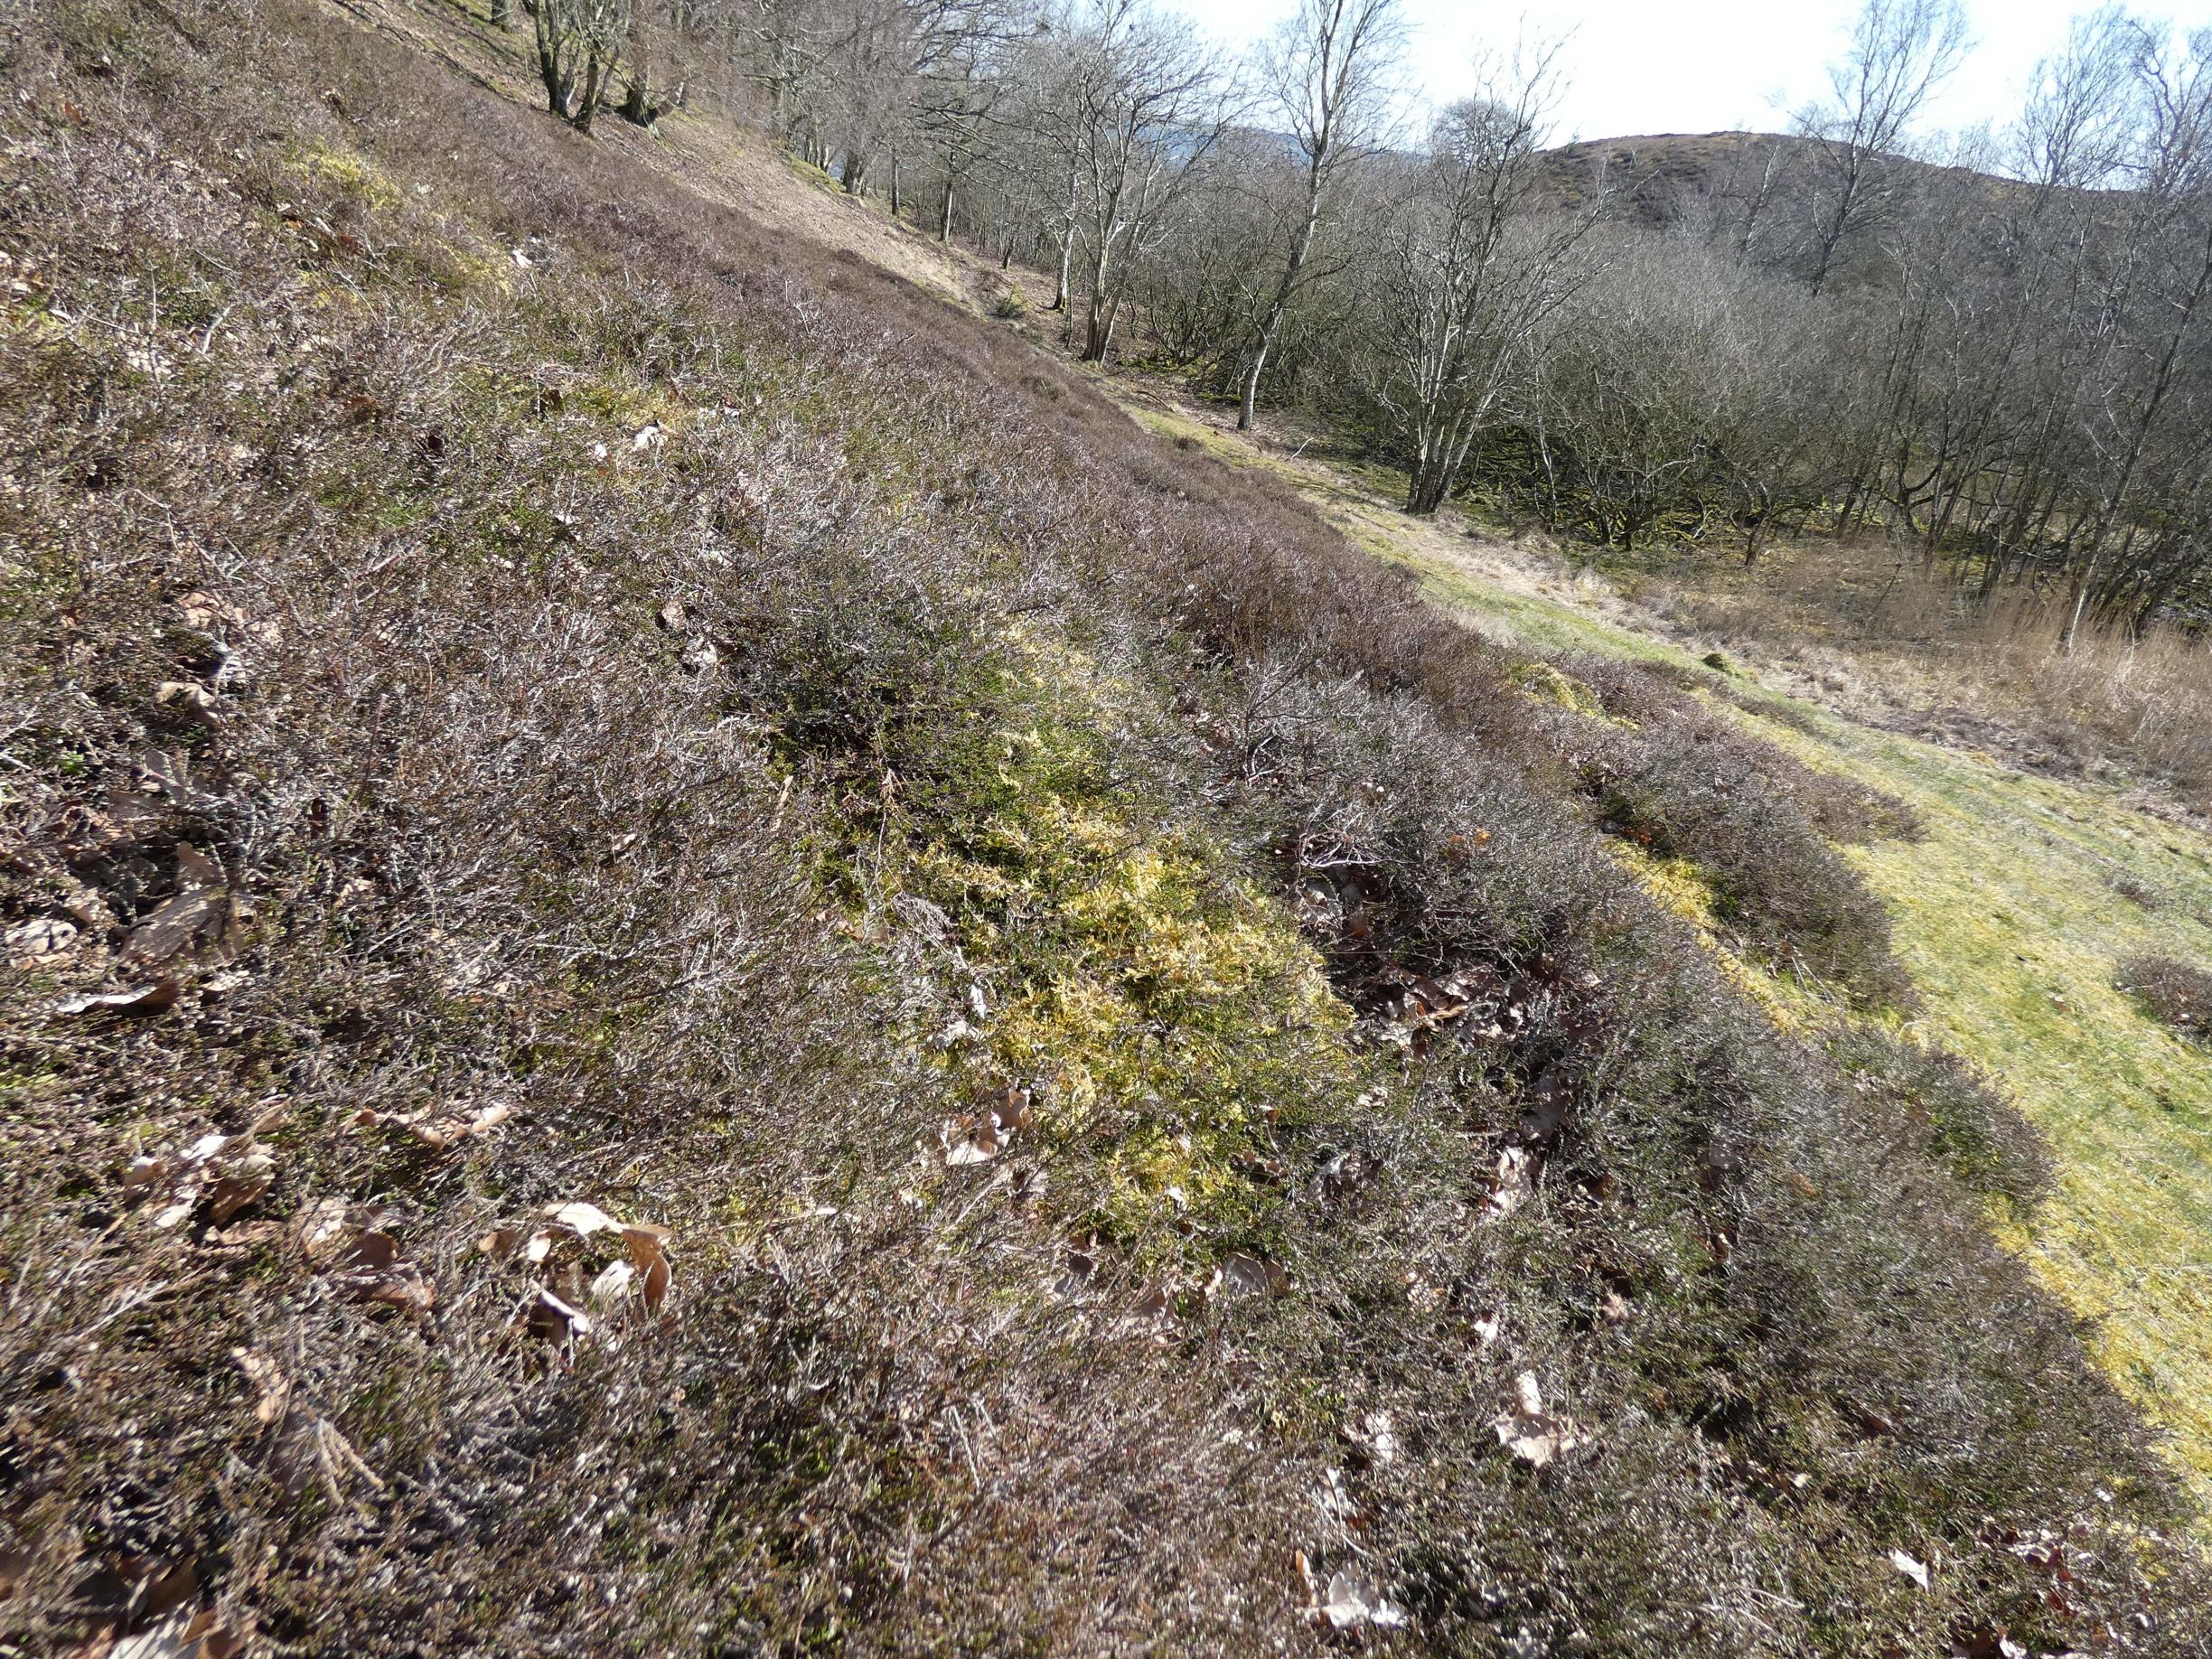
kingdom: Plantae
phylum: Tracheophyta
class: Magnoliopsida
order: Ericales
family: Ericaceae
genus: Calluna
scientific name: Calluna vulgaris
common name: Hedelyng
